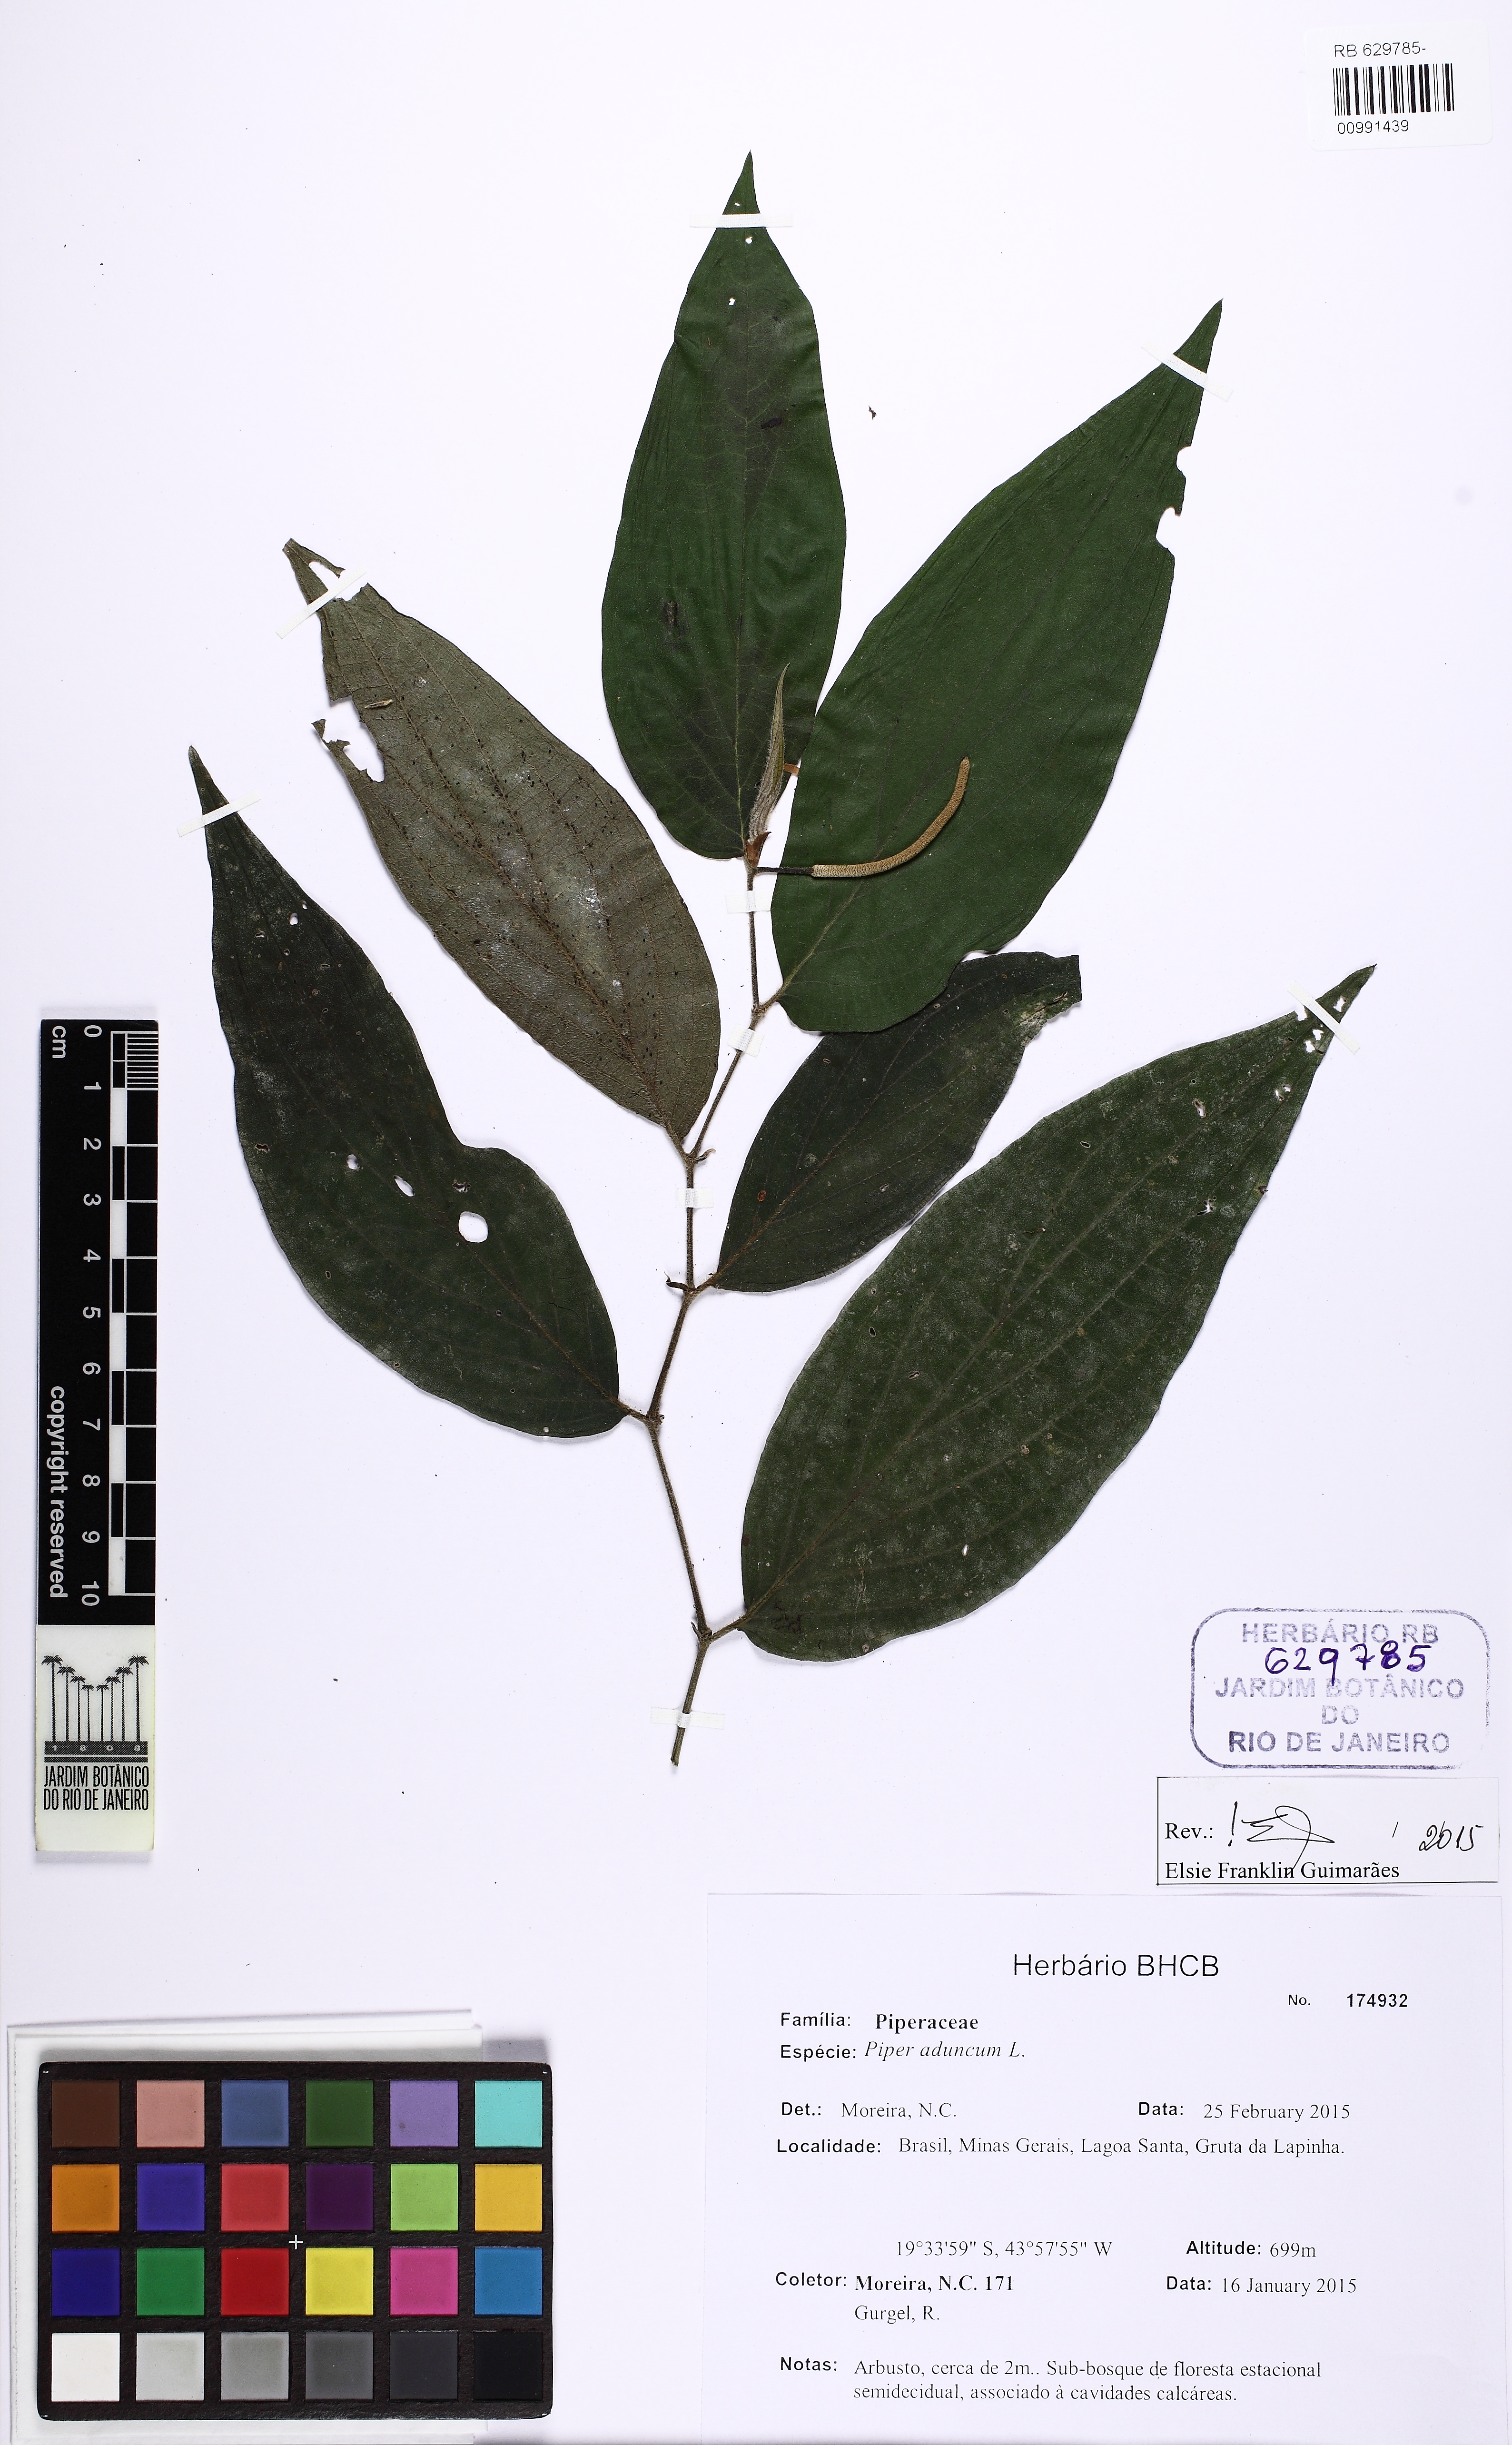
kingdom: Plantae
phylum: Tracheophyta
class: Magnoliopsida
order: Piperales
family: Piperaceae
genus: Piper
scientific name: Piper aduncum
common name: Spiked pepper
